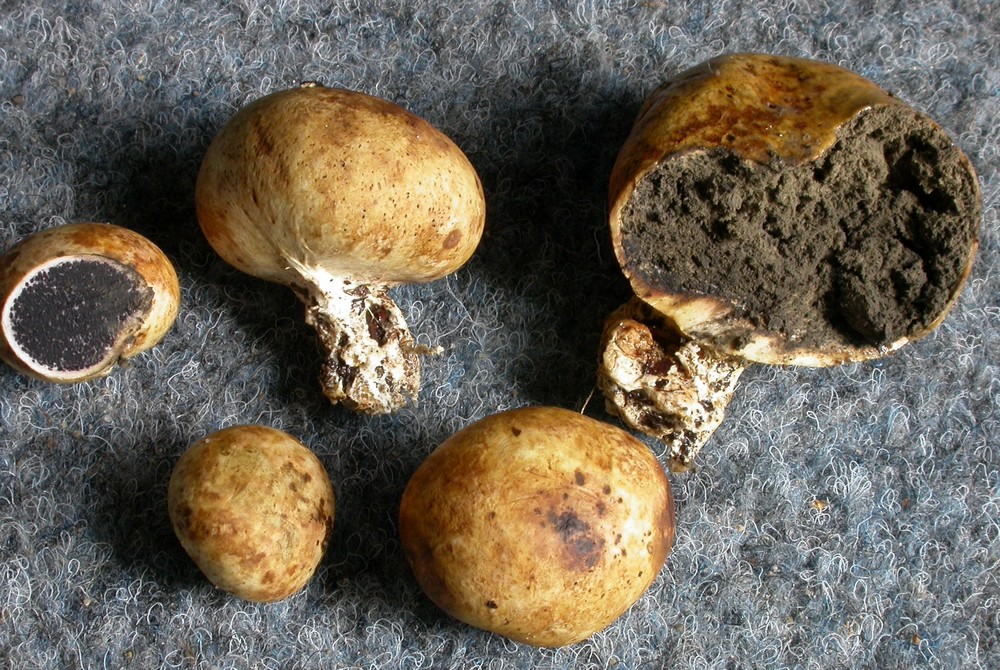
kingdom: Fungi
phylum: Basidiomycota
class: Agaricomycetes
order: Boletales
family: Sclerodermataceae
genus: Scleroderma
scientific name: Scleroderma bovista
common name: bovist-bruskbold
